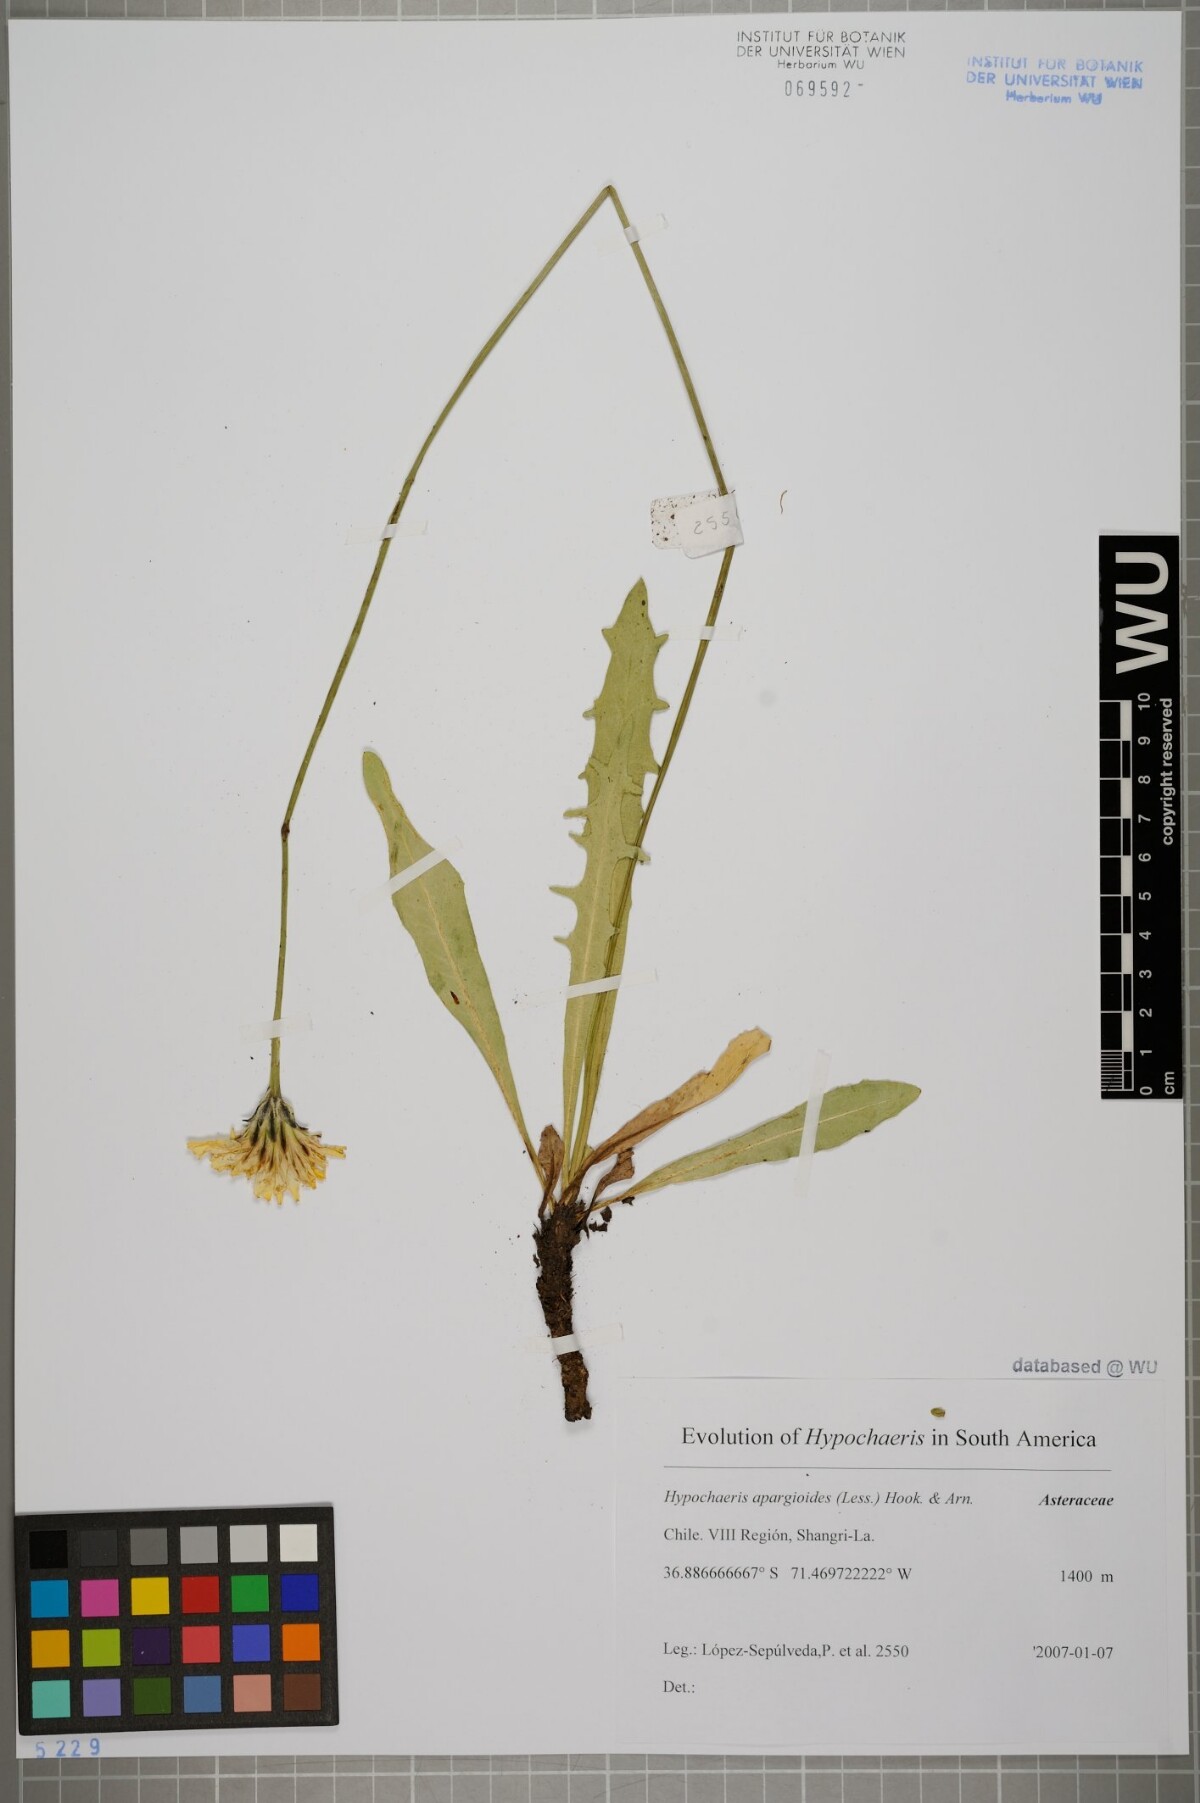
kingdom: Plantae
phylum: Tracheophyta
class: Magnoliopsida
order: Asterales
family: Asteraceae
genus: Hypochaeris
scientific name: Hypochaeris apargioides
